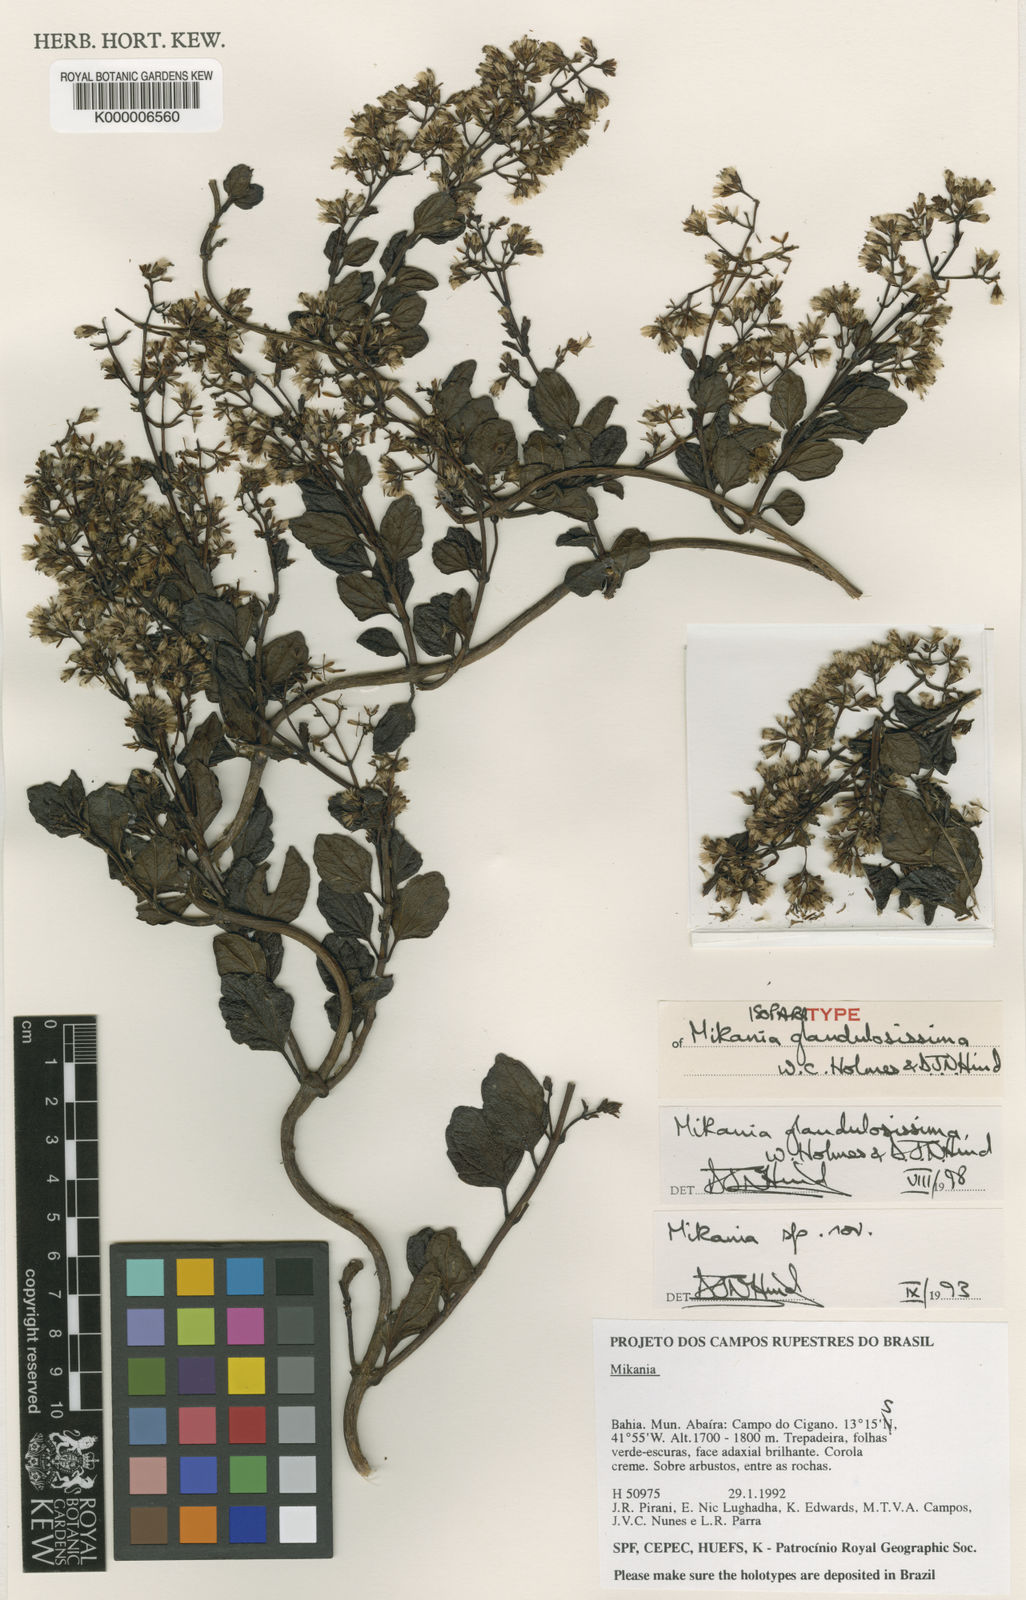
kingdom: Plantae
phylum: Tracheophyta
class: Magnoliopsida
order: Asterales
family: Asteraceae
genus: Mikania
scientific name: Mikania glandulosissima
